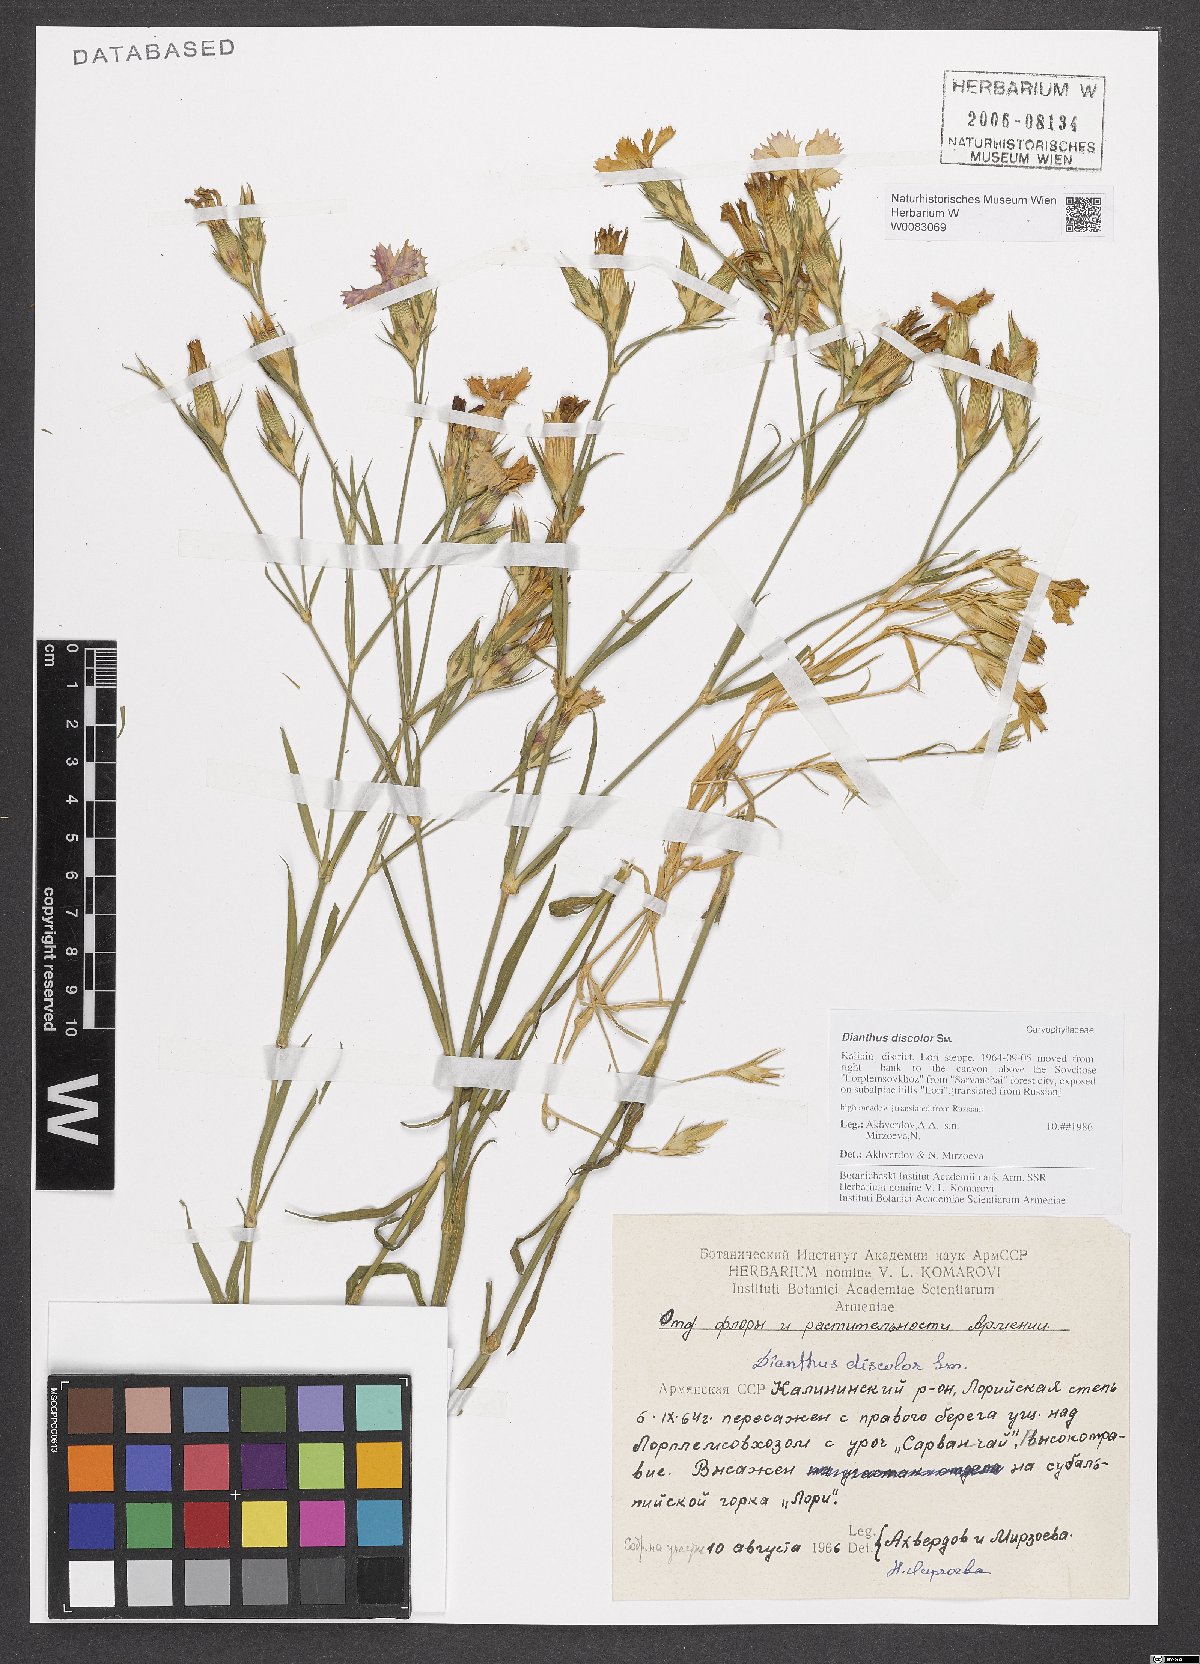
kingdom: Plantae
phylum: Tracheophyta
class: Magnoliopsida
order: Caryophyllales
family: Caryophyllaceae
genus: Dianthus
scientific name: Dianthus caucaseus
